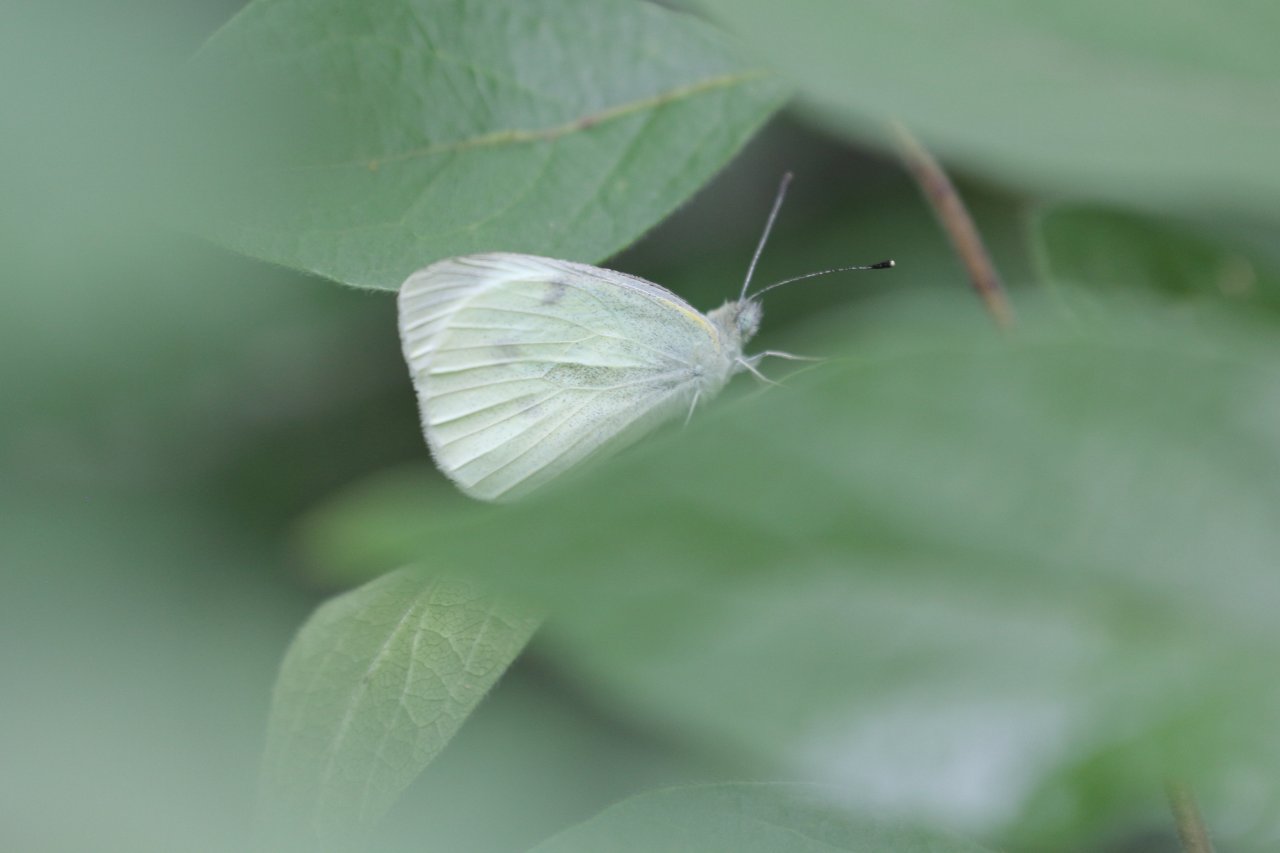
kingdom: Animalia
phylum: Arthropoda
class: Insecta
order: Lepidoptera
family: Pieridae
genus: Pieris
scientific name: Pieris rapae
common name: Cabbage White
